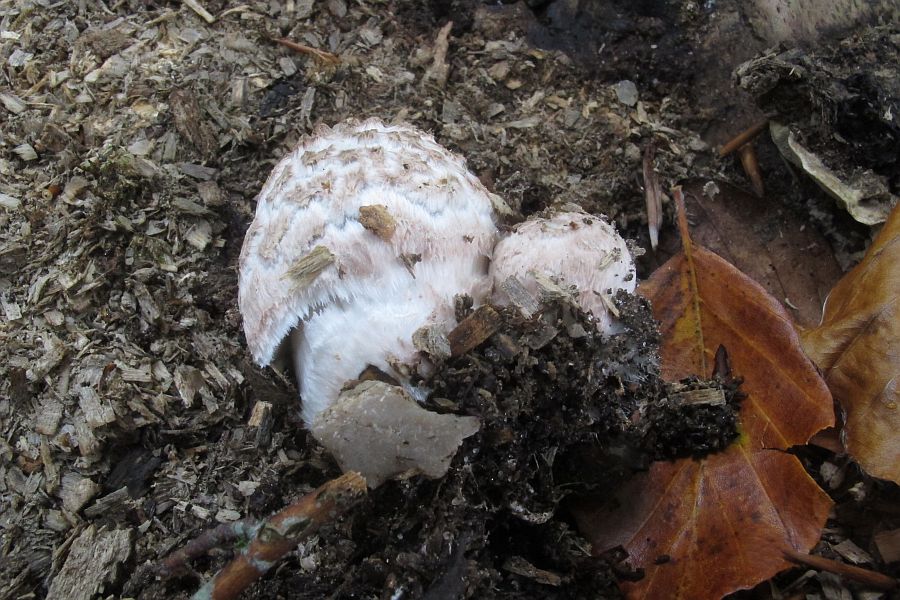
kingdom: Fungi
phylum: Basidiomycota
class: Agaricomycetes
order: Agaricales
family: Agaricaceae
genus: Leucoagaricus
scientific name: Leucoagaricus nympharum
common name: gran-silkehat
